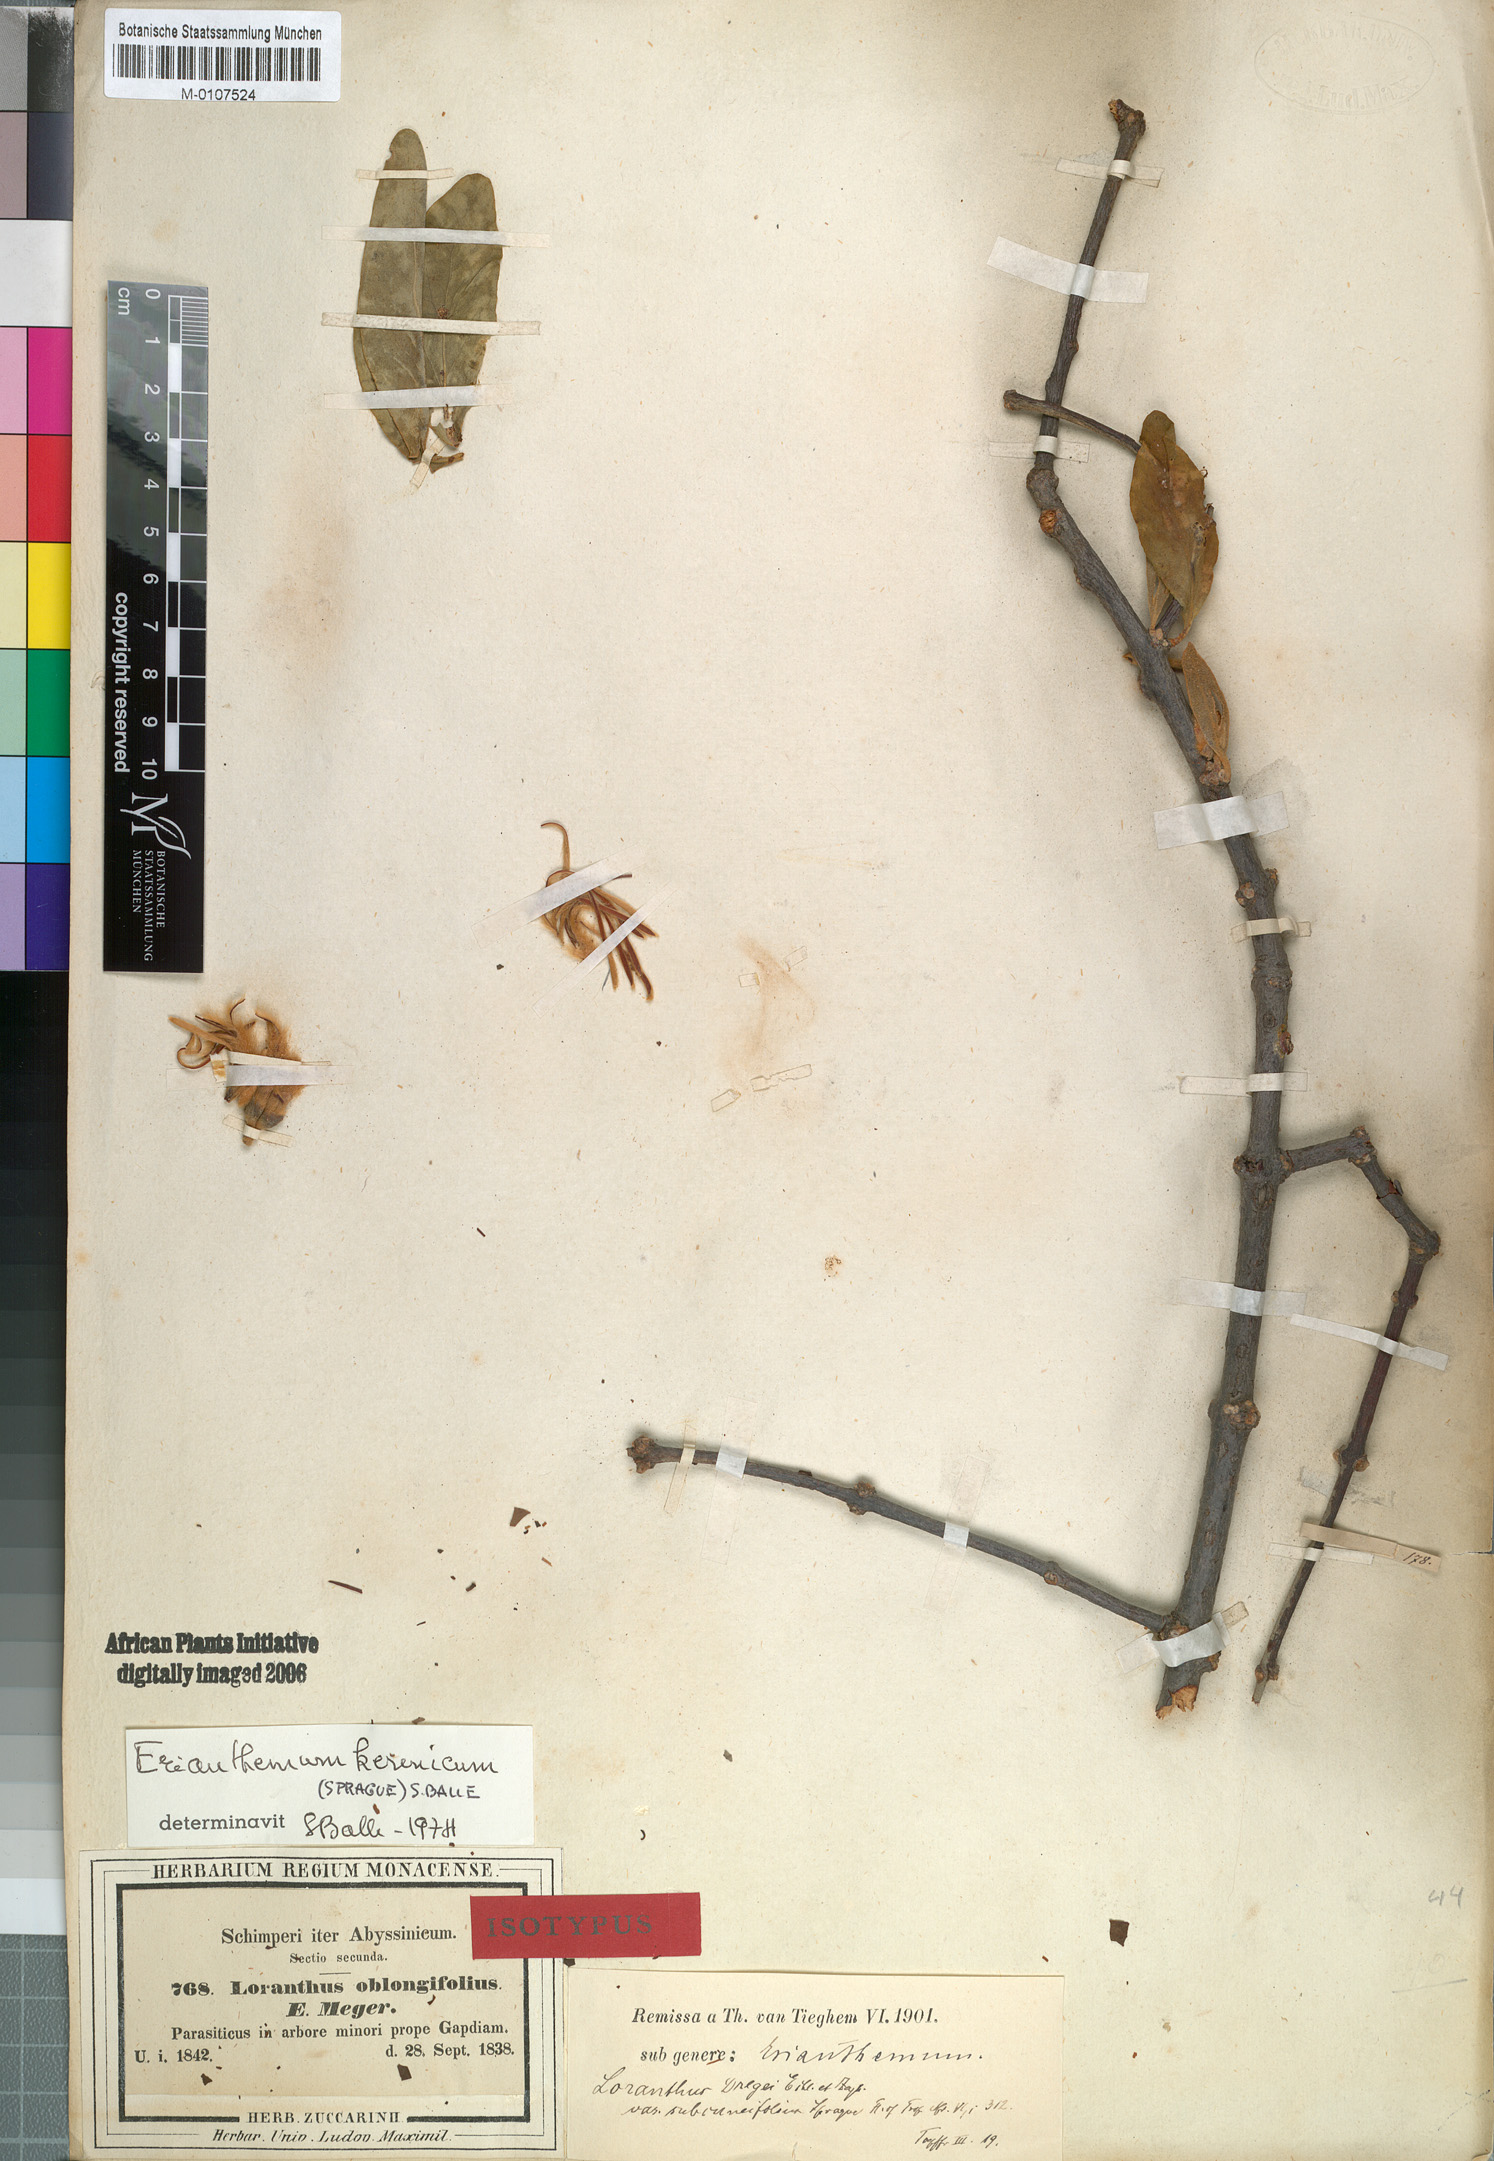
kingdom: Plantae
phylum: Tracheophyta
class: Magnoliopsida
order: Santalales
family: Loranthaceae
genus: Erianthemum
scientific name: Erianthemum dregei
